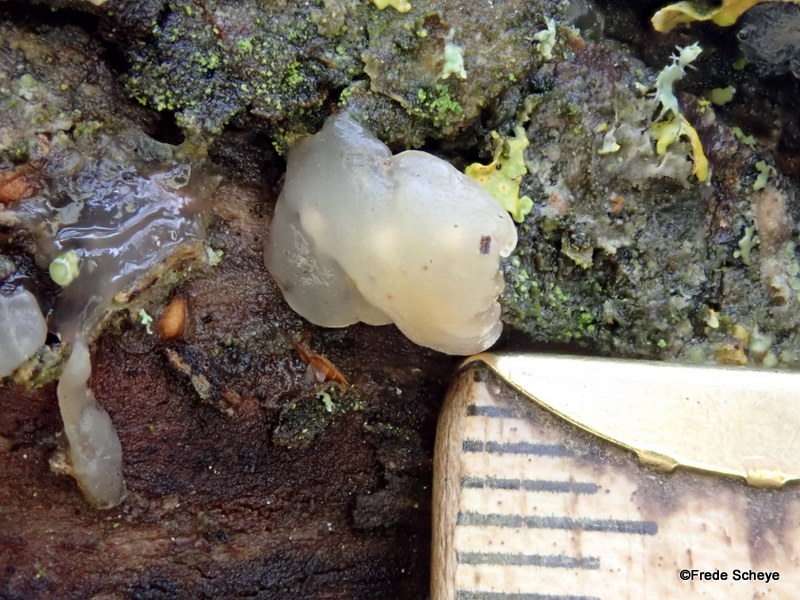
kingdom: Fungi
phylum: Basidiomycota
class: Agaricomycetes
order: Auriculariales
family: Hyaloriaceae
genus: Myxarium
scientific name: Myxarium nucleatum
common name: klar bævretop
